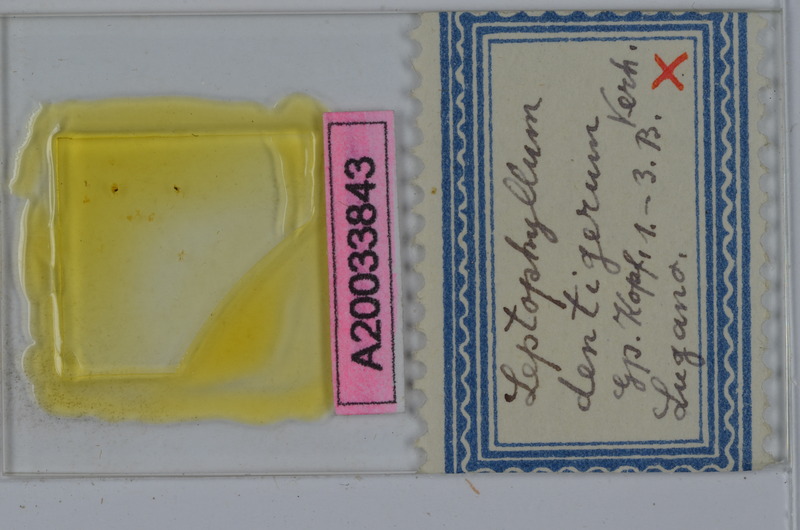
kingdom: Animalia
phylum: Arthropoda
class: Diplopoda
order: Julida
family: Julidae
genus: Enantiulus
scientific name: Enantiulus dentigerus
